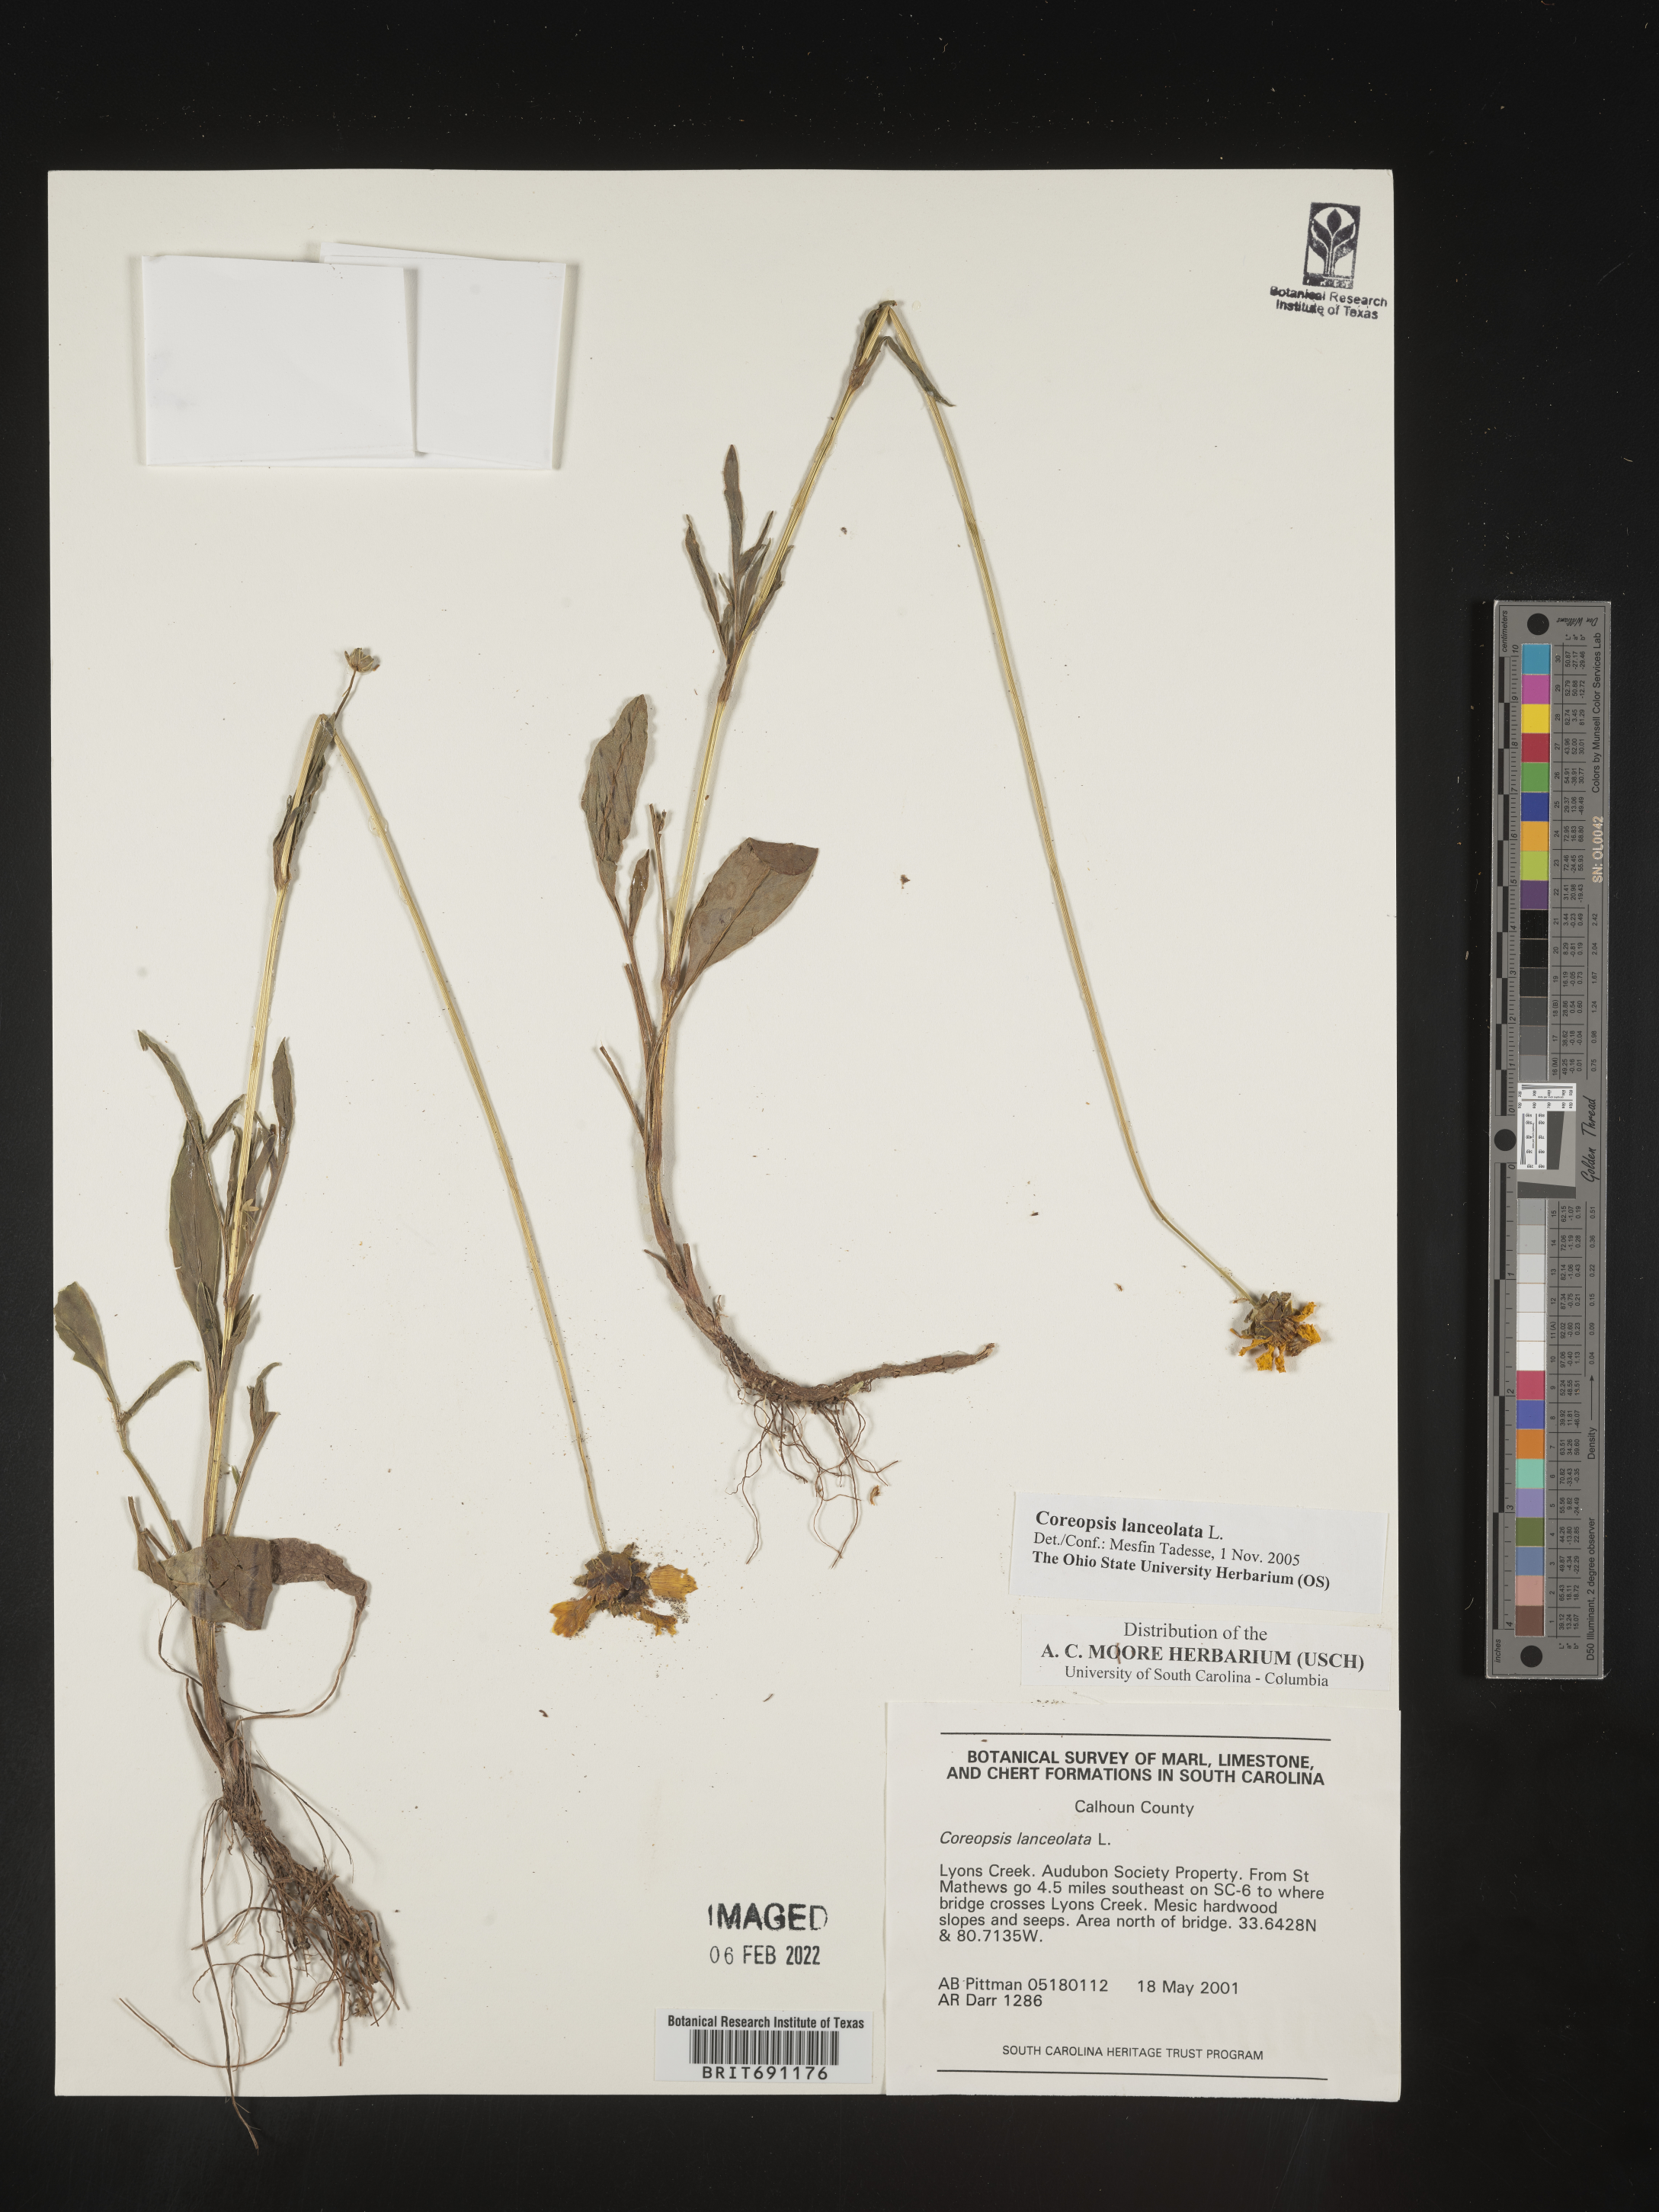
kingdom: Plantae
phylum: Tracheophyta
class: Magnoliopsida
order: Asterales
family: Asteraceae
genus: Coreopsis
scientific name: Coreopsis lanceolata
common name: Garden coreopsis
